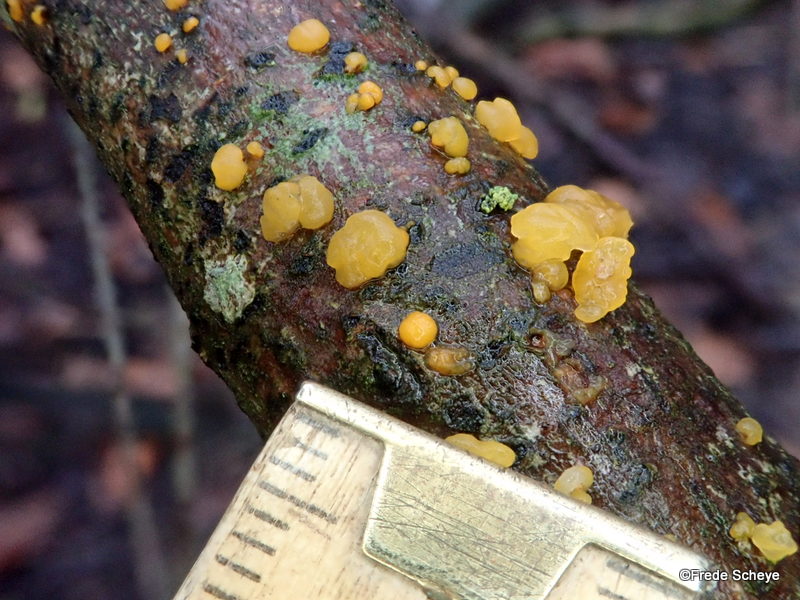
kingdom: Fungi
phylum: Basidiomycota
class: Dacrymycetes
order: Dacrymycetales
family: Dacrymycetaceae
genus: Dacrymyces
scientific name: Dacrymyces stillatus
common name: almindelig tåresvamp
